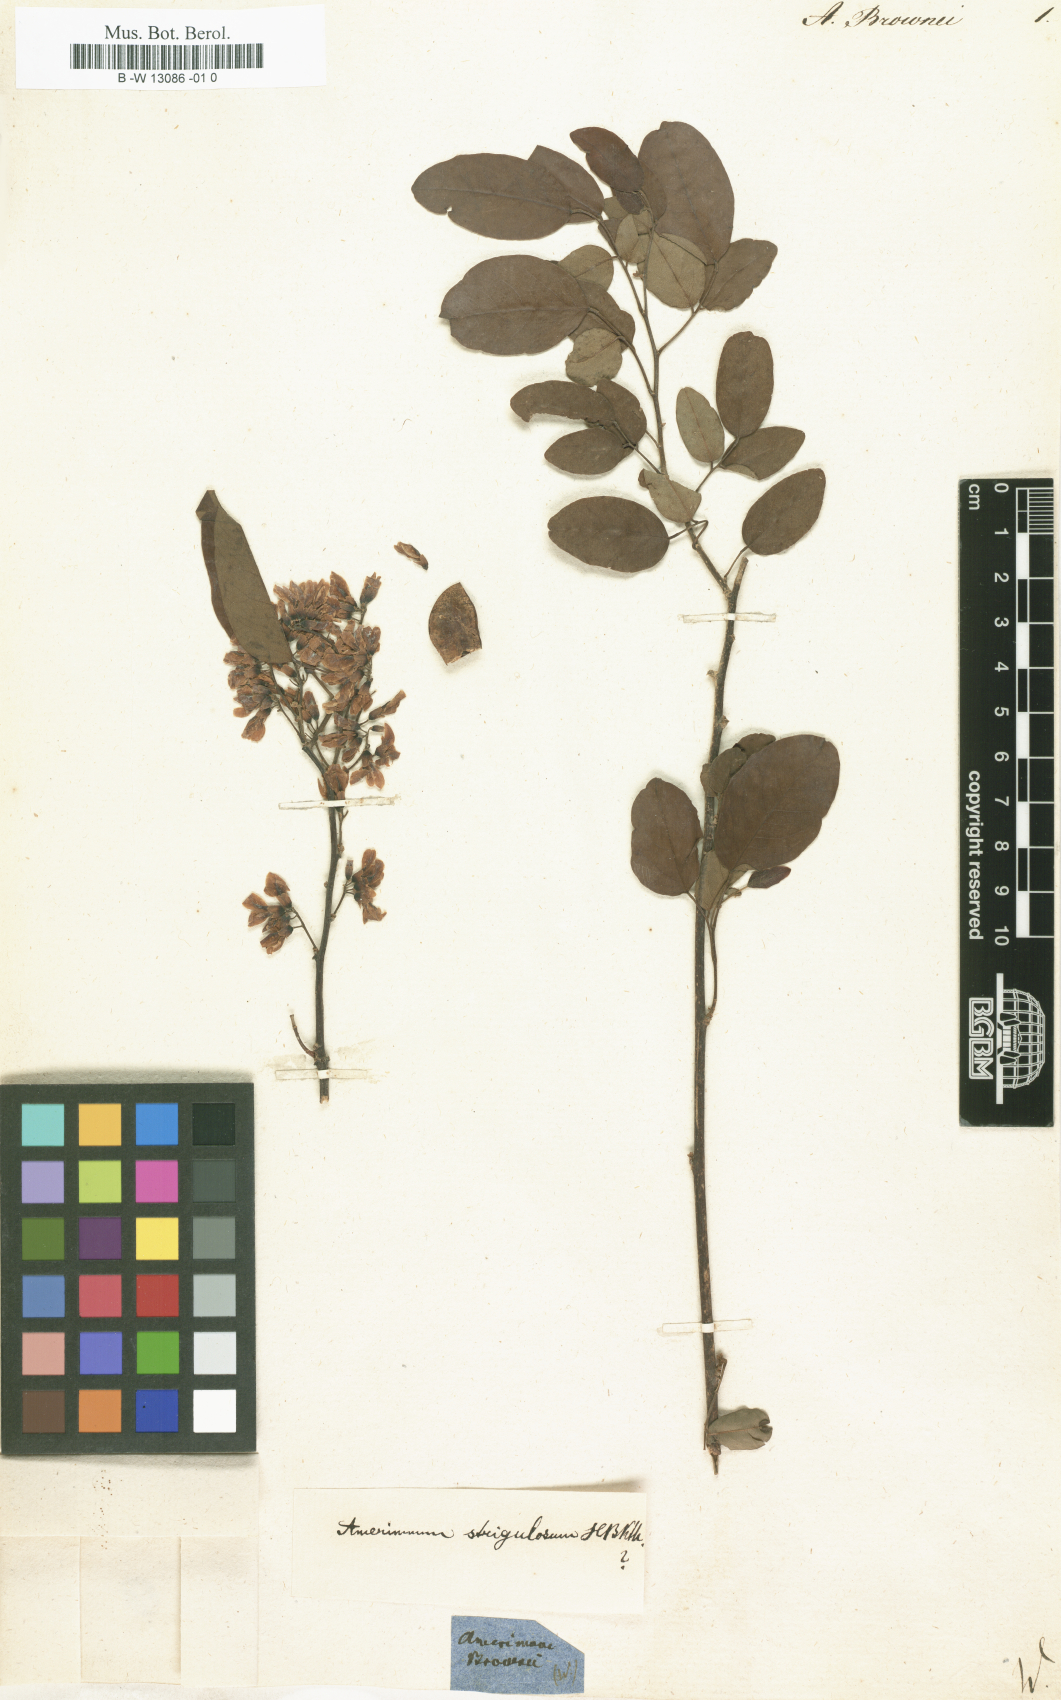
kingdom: Plantae
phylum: Tracheophyta
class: Magnoliopsida
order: Fabales
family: Fabaceae
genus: Dalbergia
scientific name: Dalbergia brownei
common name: Brown's indian rosewood
